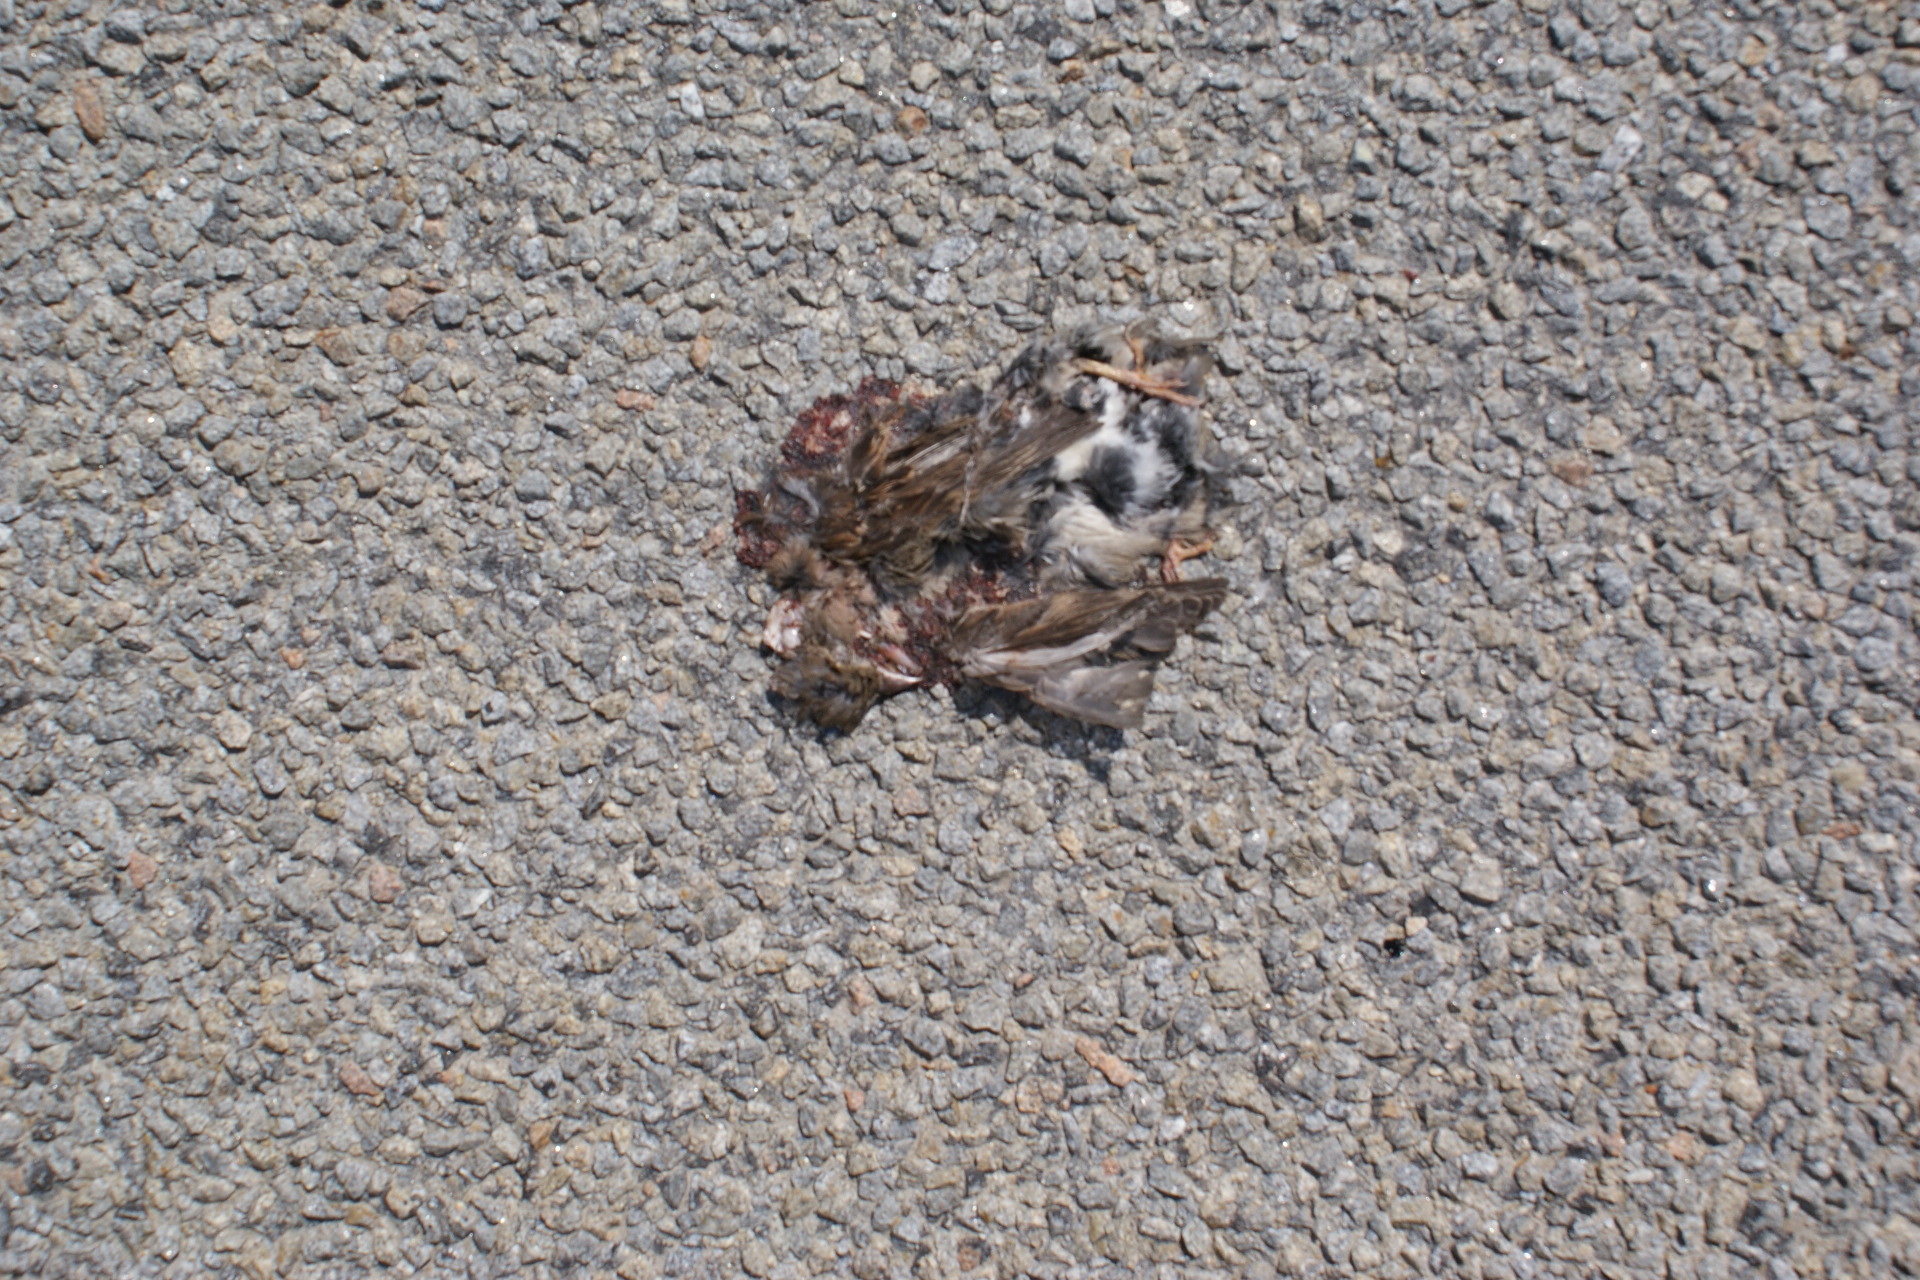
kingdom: Animalia
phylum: Chordata
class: Aves
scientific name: Aves
